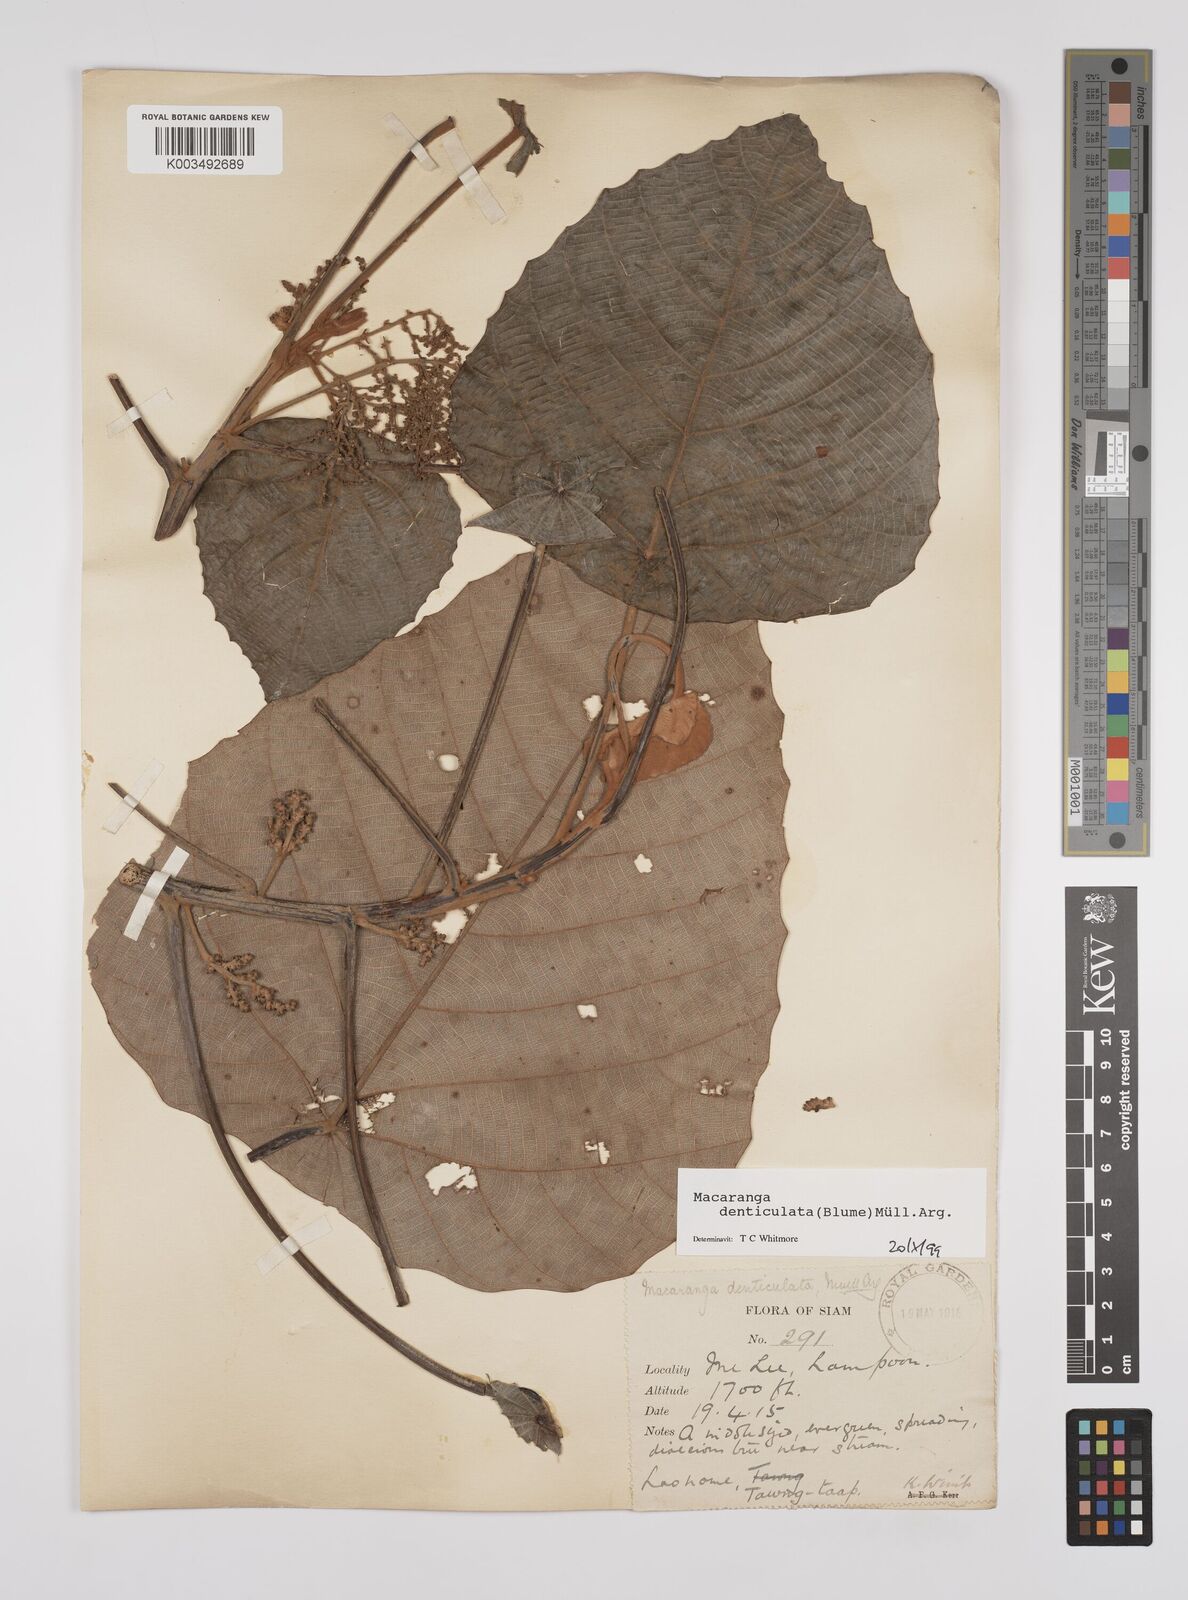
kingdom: Plantae
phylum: Tracheophyta
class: Magnoliopsida
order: Malpighiales
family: Euphorbiaceae
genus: Macaranga
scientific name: Macaranga denticulata
